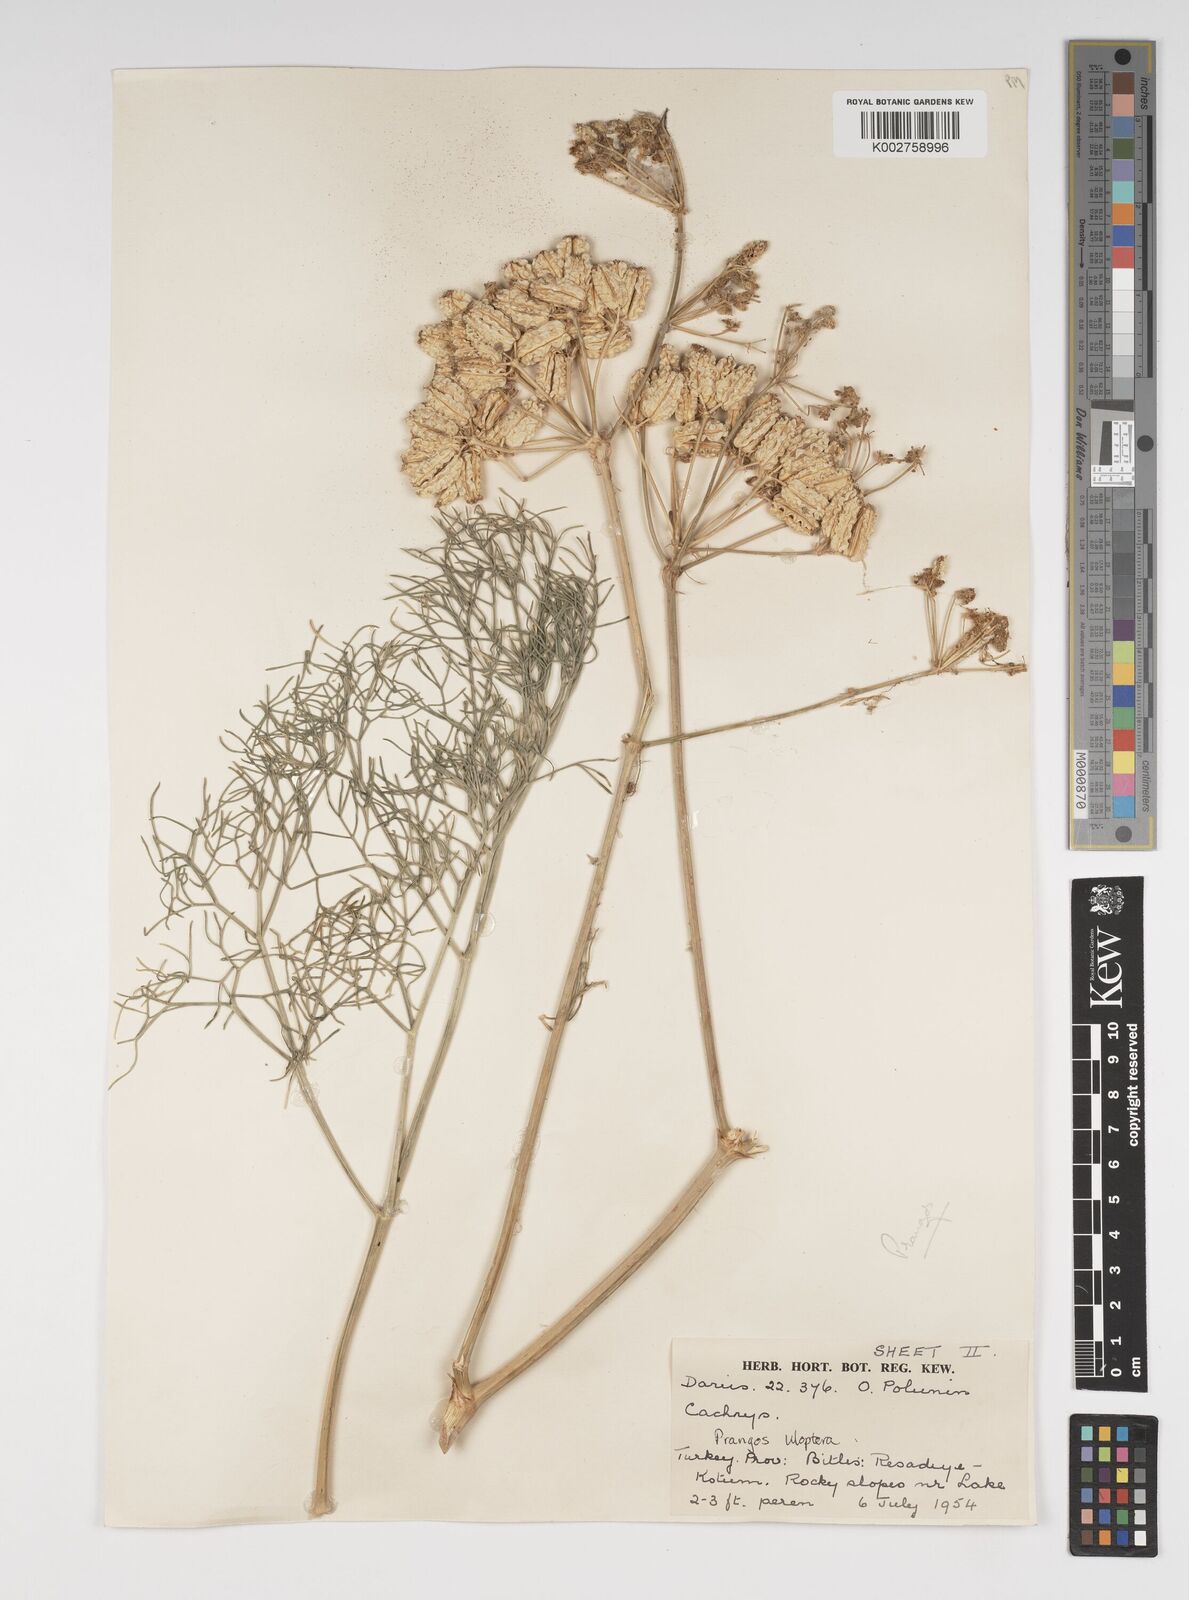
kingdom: Plantae
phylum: Tracheophyta
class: Magnoliopsida
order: Apiales
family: Apiaceae
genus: Prangos
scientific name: Prangos uloptera
